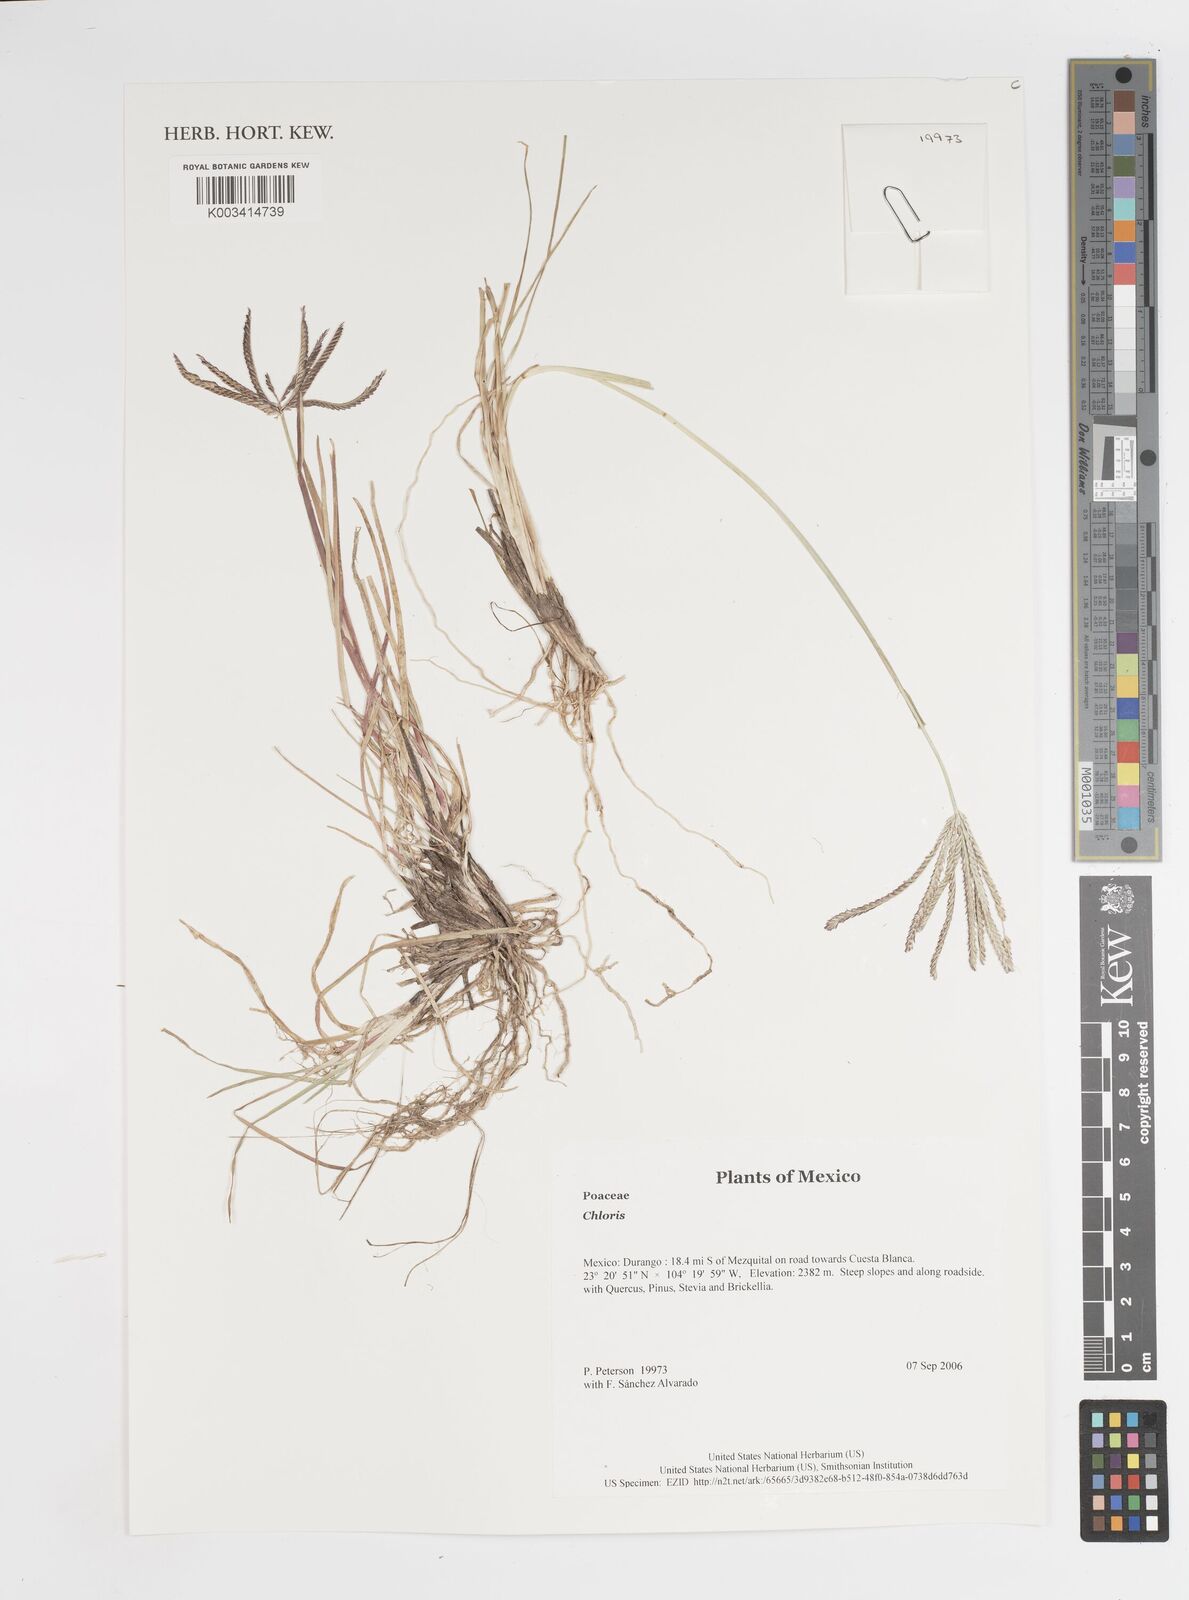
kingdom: Plantae
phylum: Tracheophyta
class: Liliopsida
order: Poales
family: Poaceae
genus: Chloris
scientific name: Chloris
